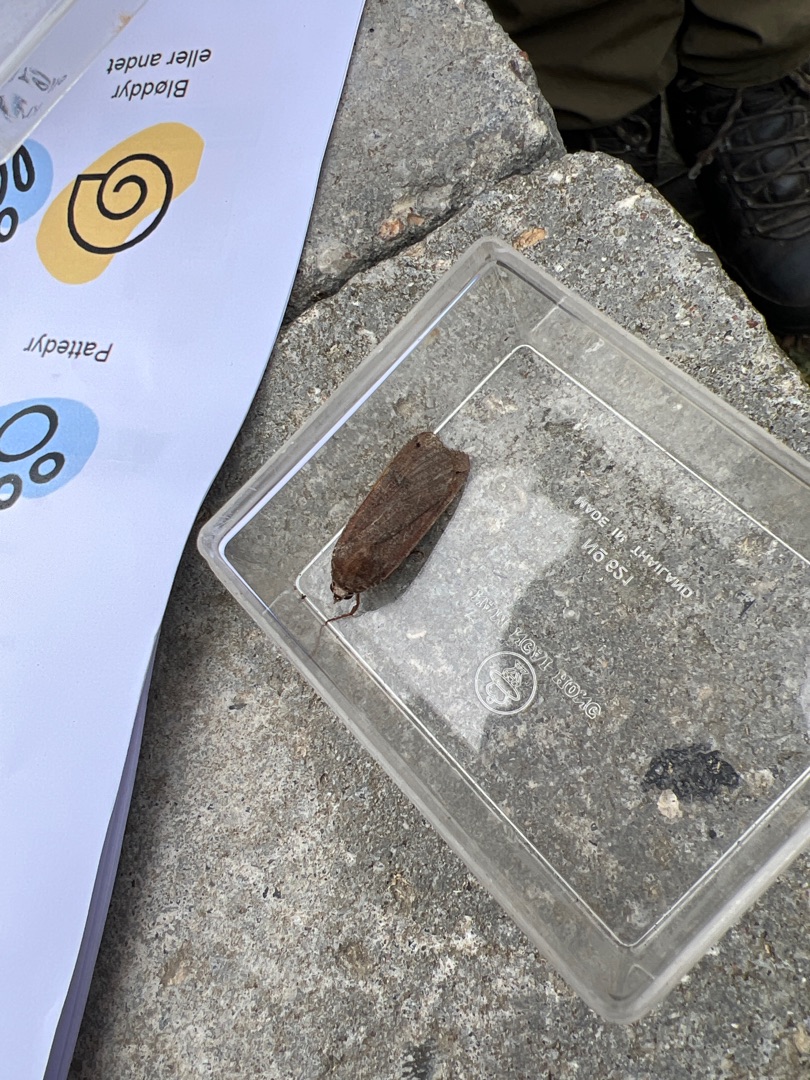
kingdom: Animalia
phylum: Arthropoda
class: Insecta
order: Lepidoptera
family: Noctuidae
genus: Noctua
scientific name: Noctua pronuba
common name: Stor smutugle
